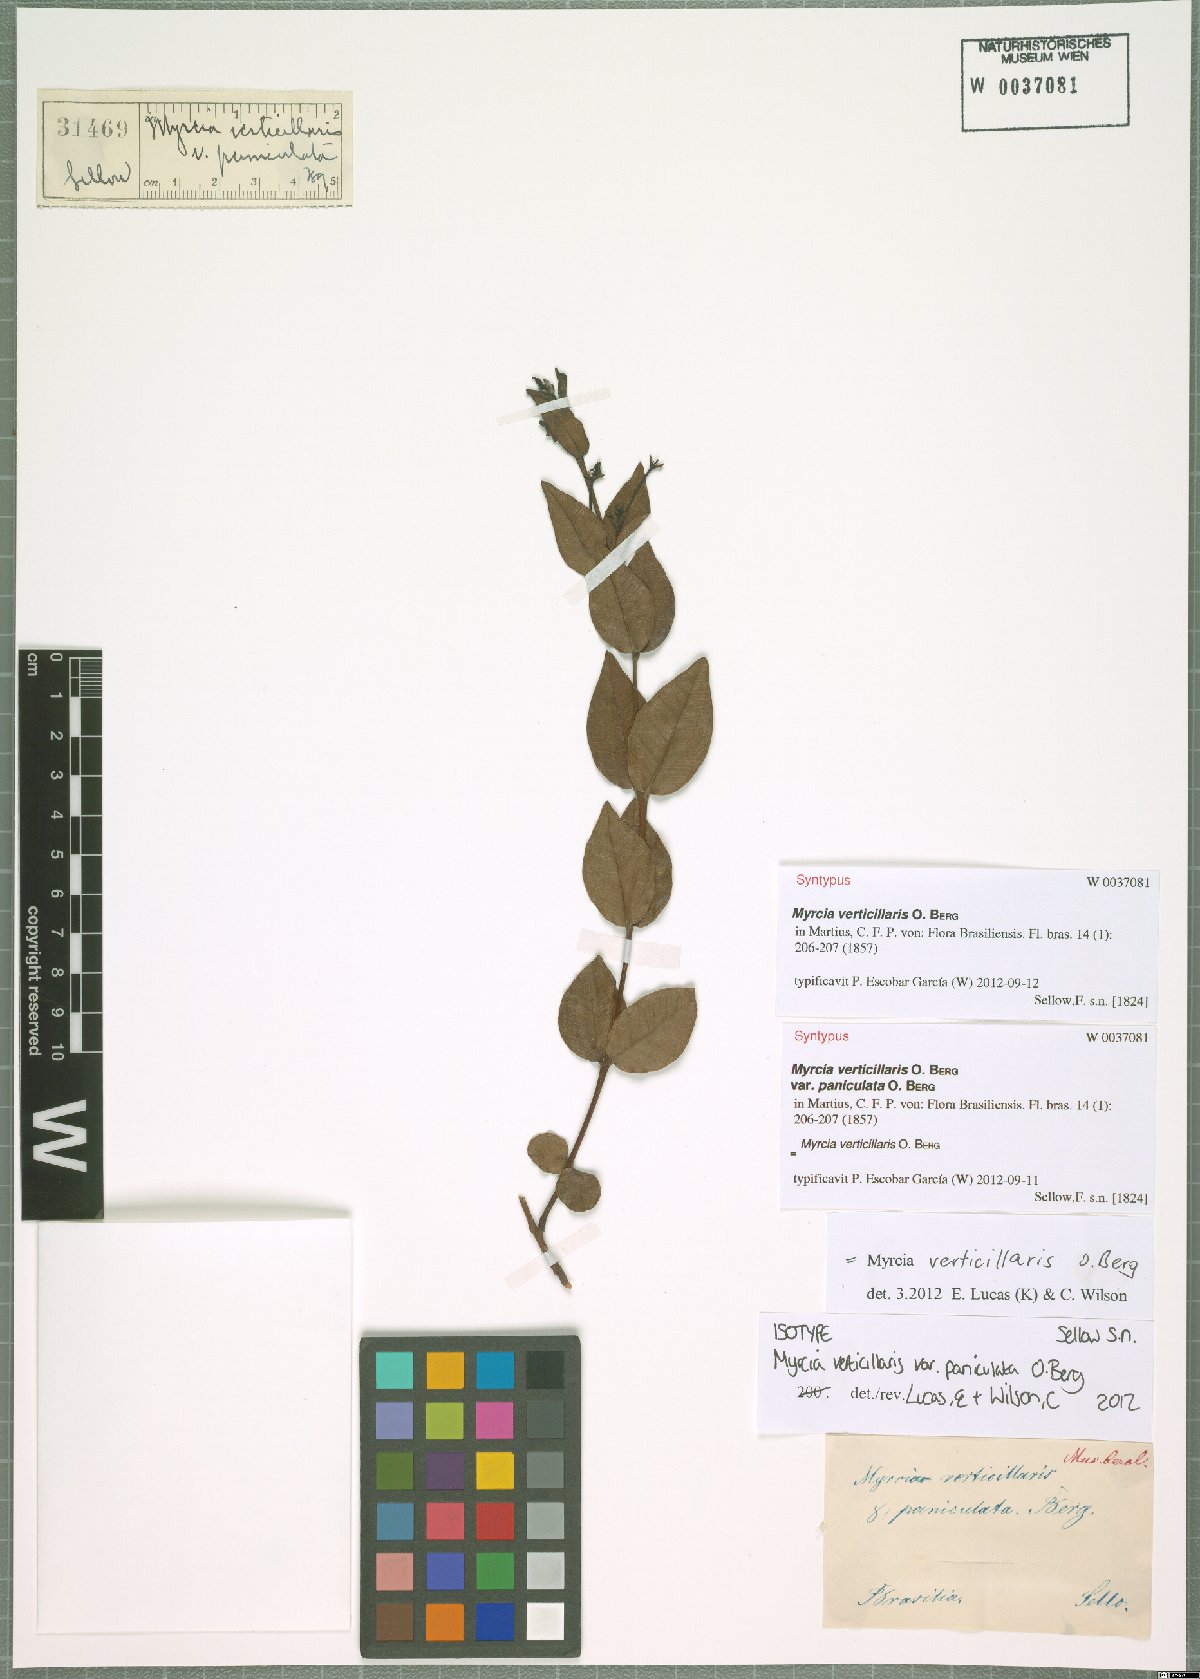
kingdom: Plantae
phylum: Tracheophyta
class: Magnoliopsida
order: Myrtales
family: Myrtaceae
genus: Myrcia
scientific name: Myrcia verticillaris
